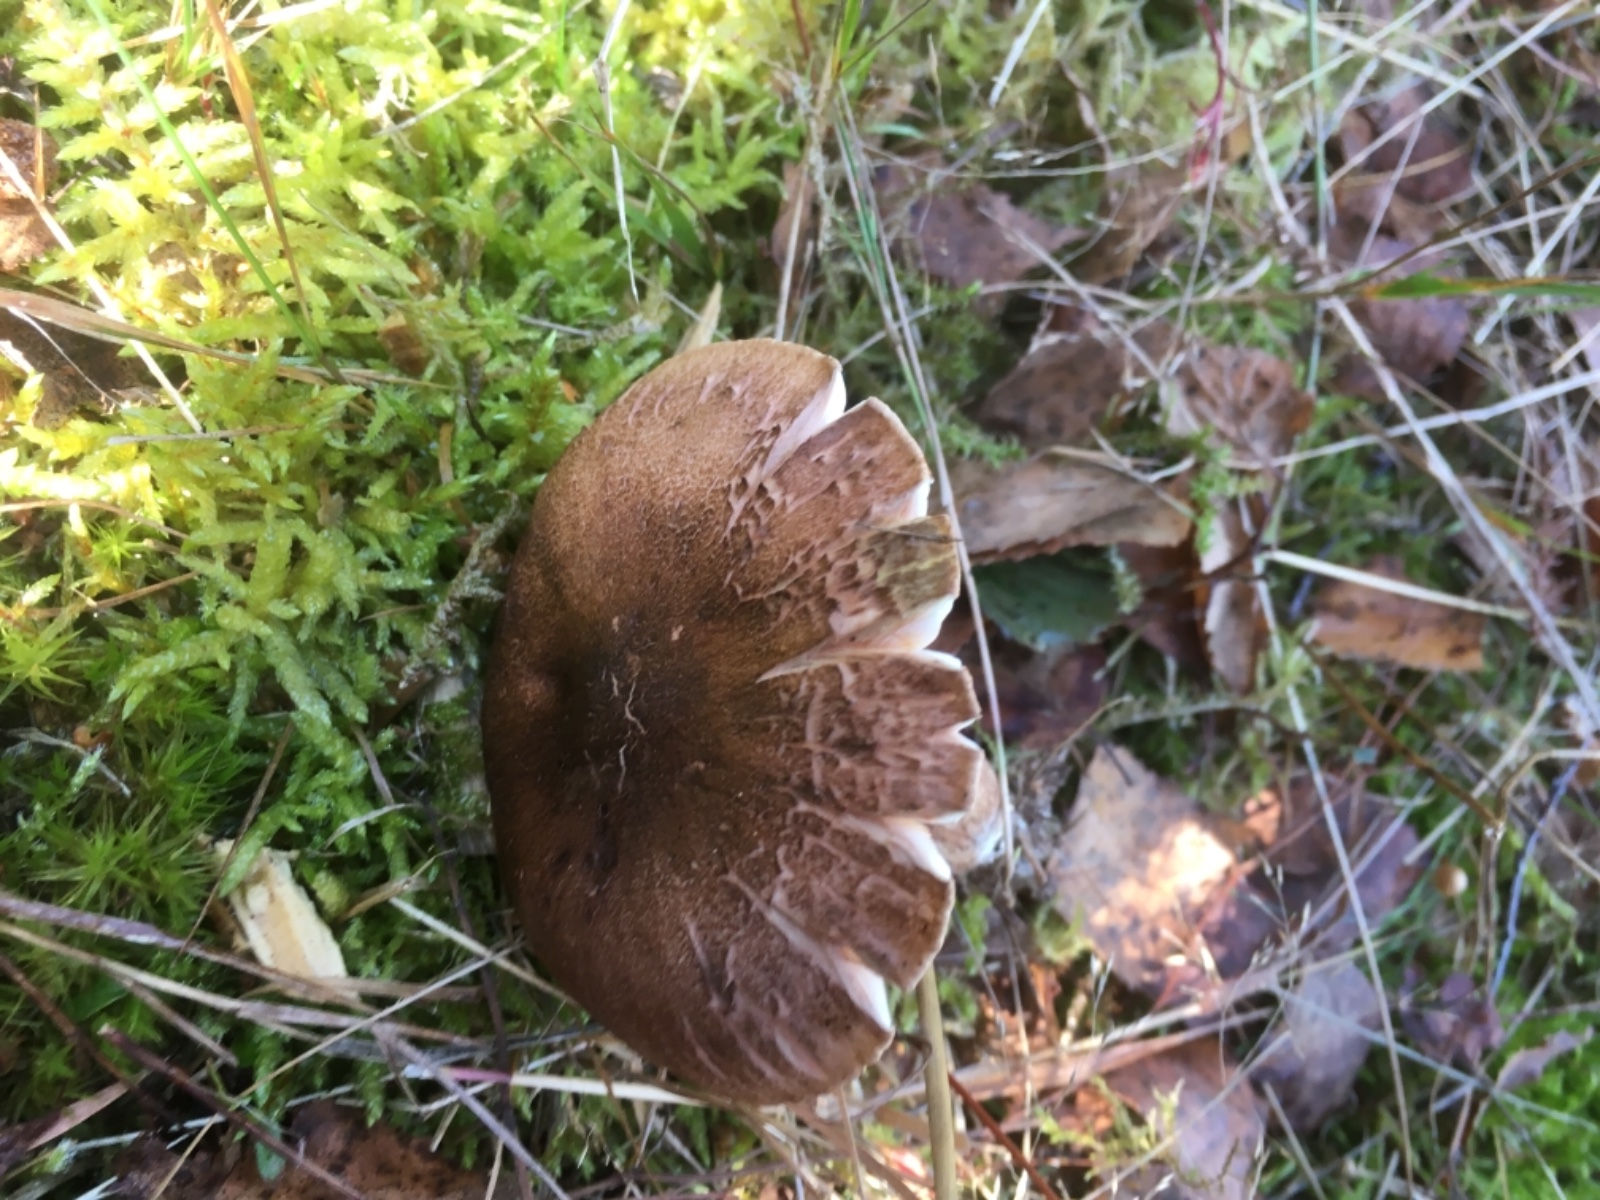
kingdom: Fungi
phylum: Basidiomycota
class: Agaricomycetes
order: Agaricales
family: Tricholomataceae
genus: Tricholoma
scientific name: Tricholoma imbricatum
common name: skællet ridderhat
